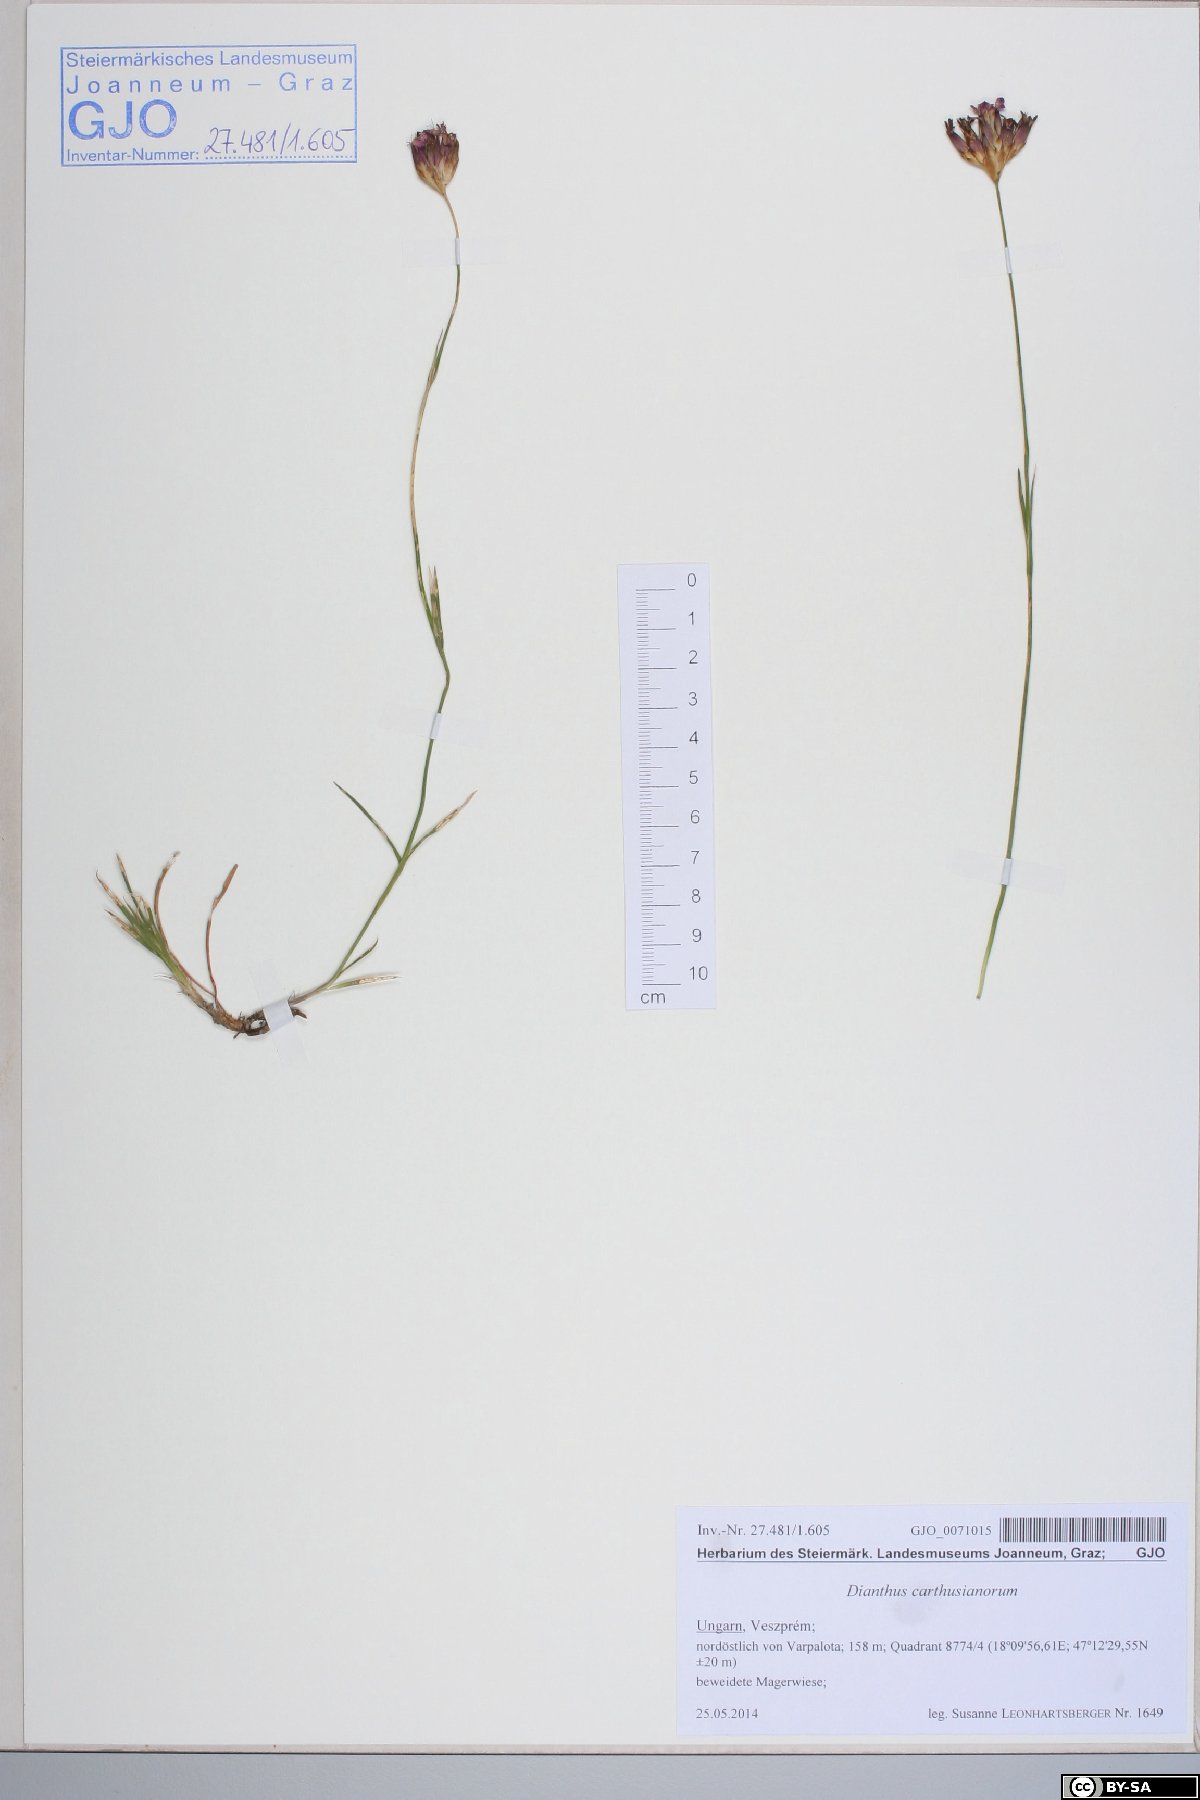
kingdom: Plantae
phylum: Tracheophyta
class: Magnoliopsida
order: Caryophyllales
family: Caryophyllaceae
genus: Dianthus
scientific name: Dianthus carthusianorum
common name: Carthusian pink
